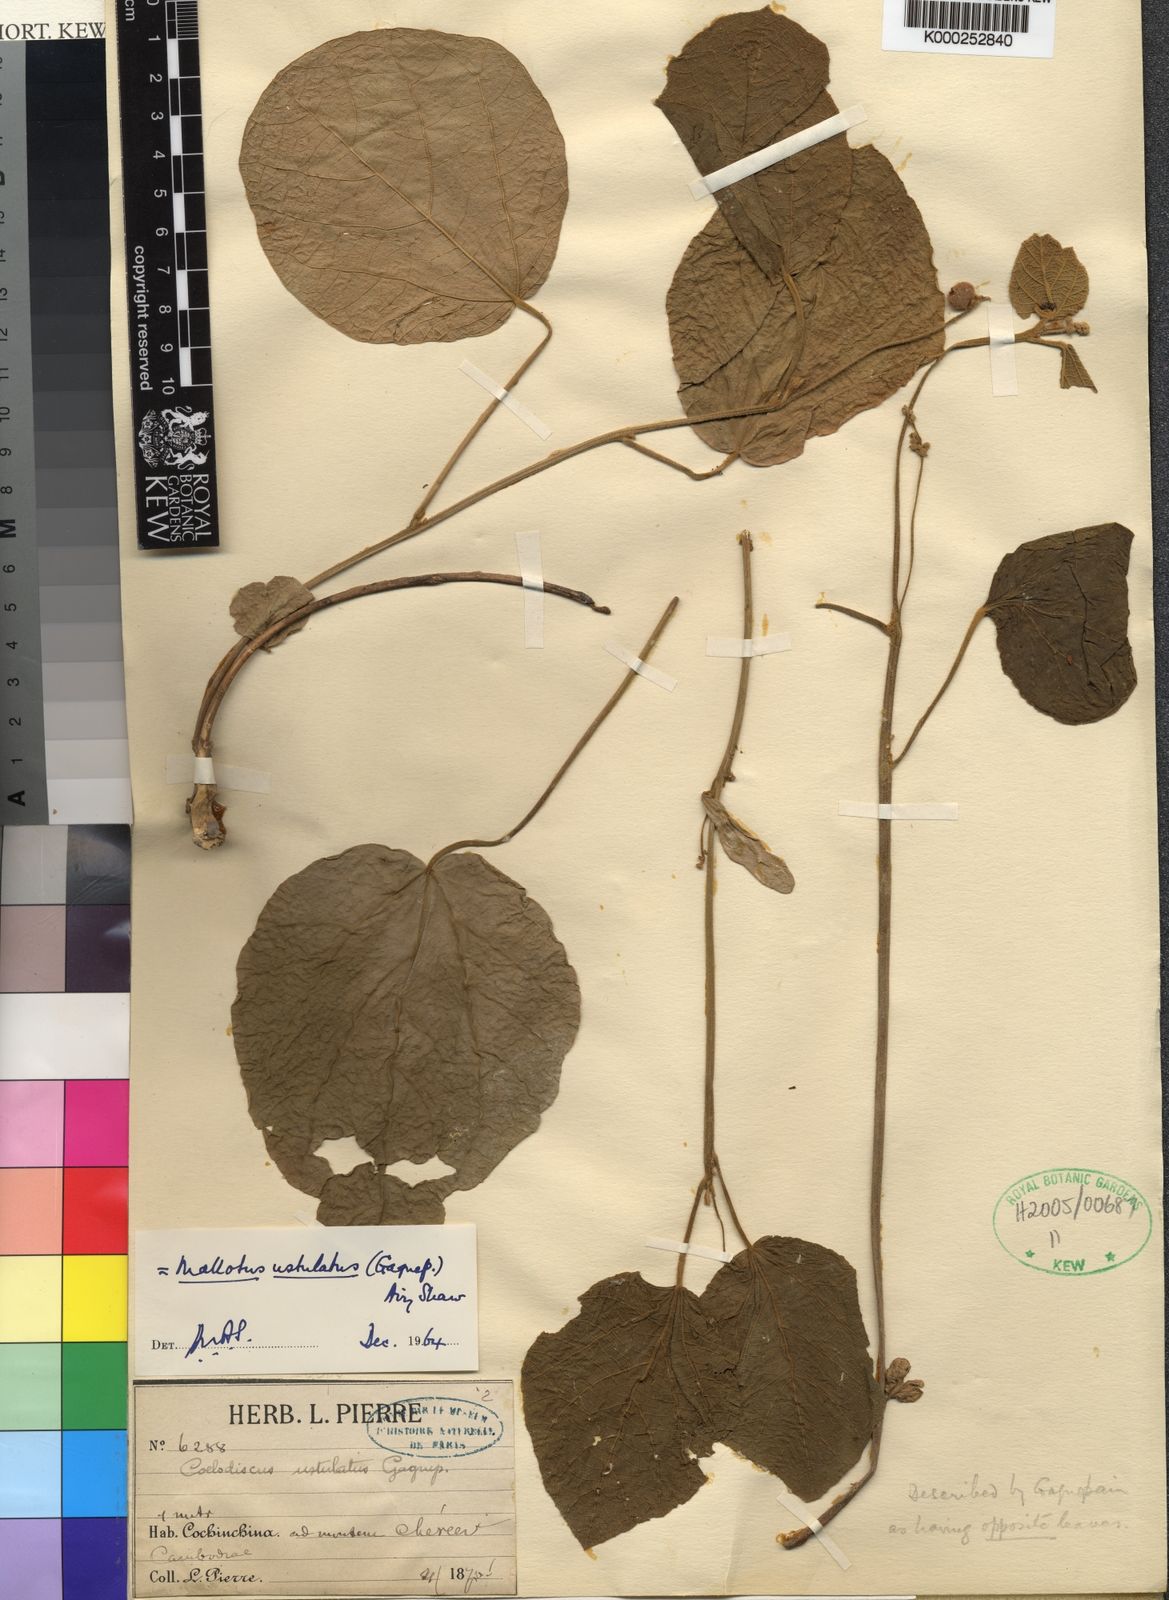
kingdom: Plantae
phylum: Tracheophyta
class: Magnoliopsida
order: Malpighiales
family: Euphorbiaceae
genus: Mallotus
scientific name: Mallotus ustulatus
